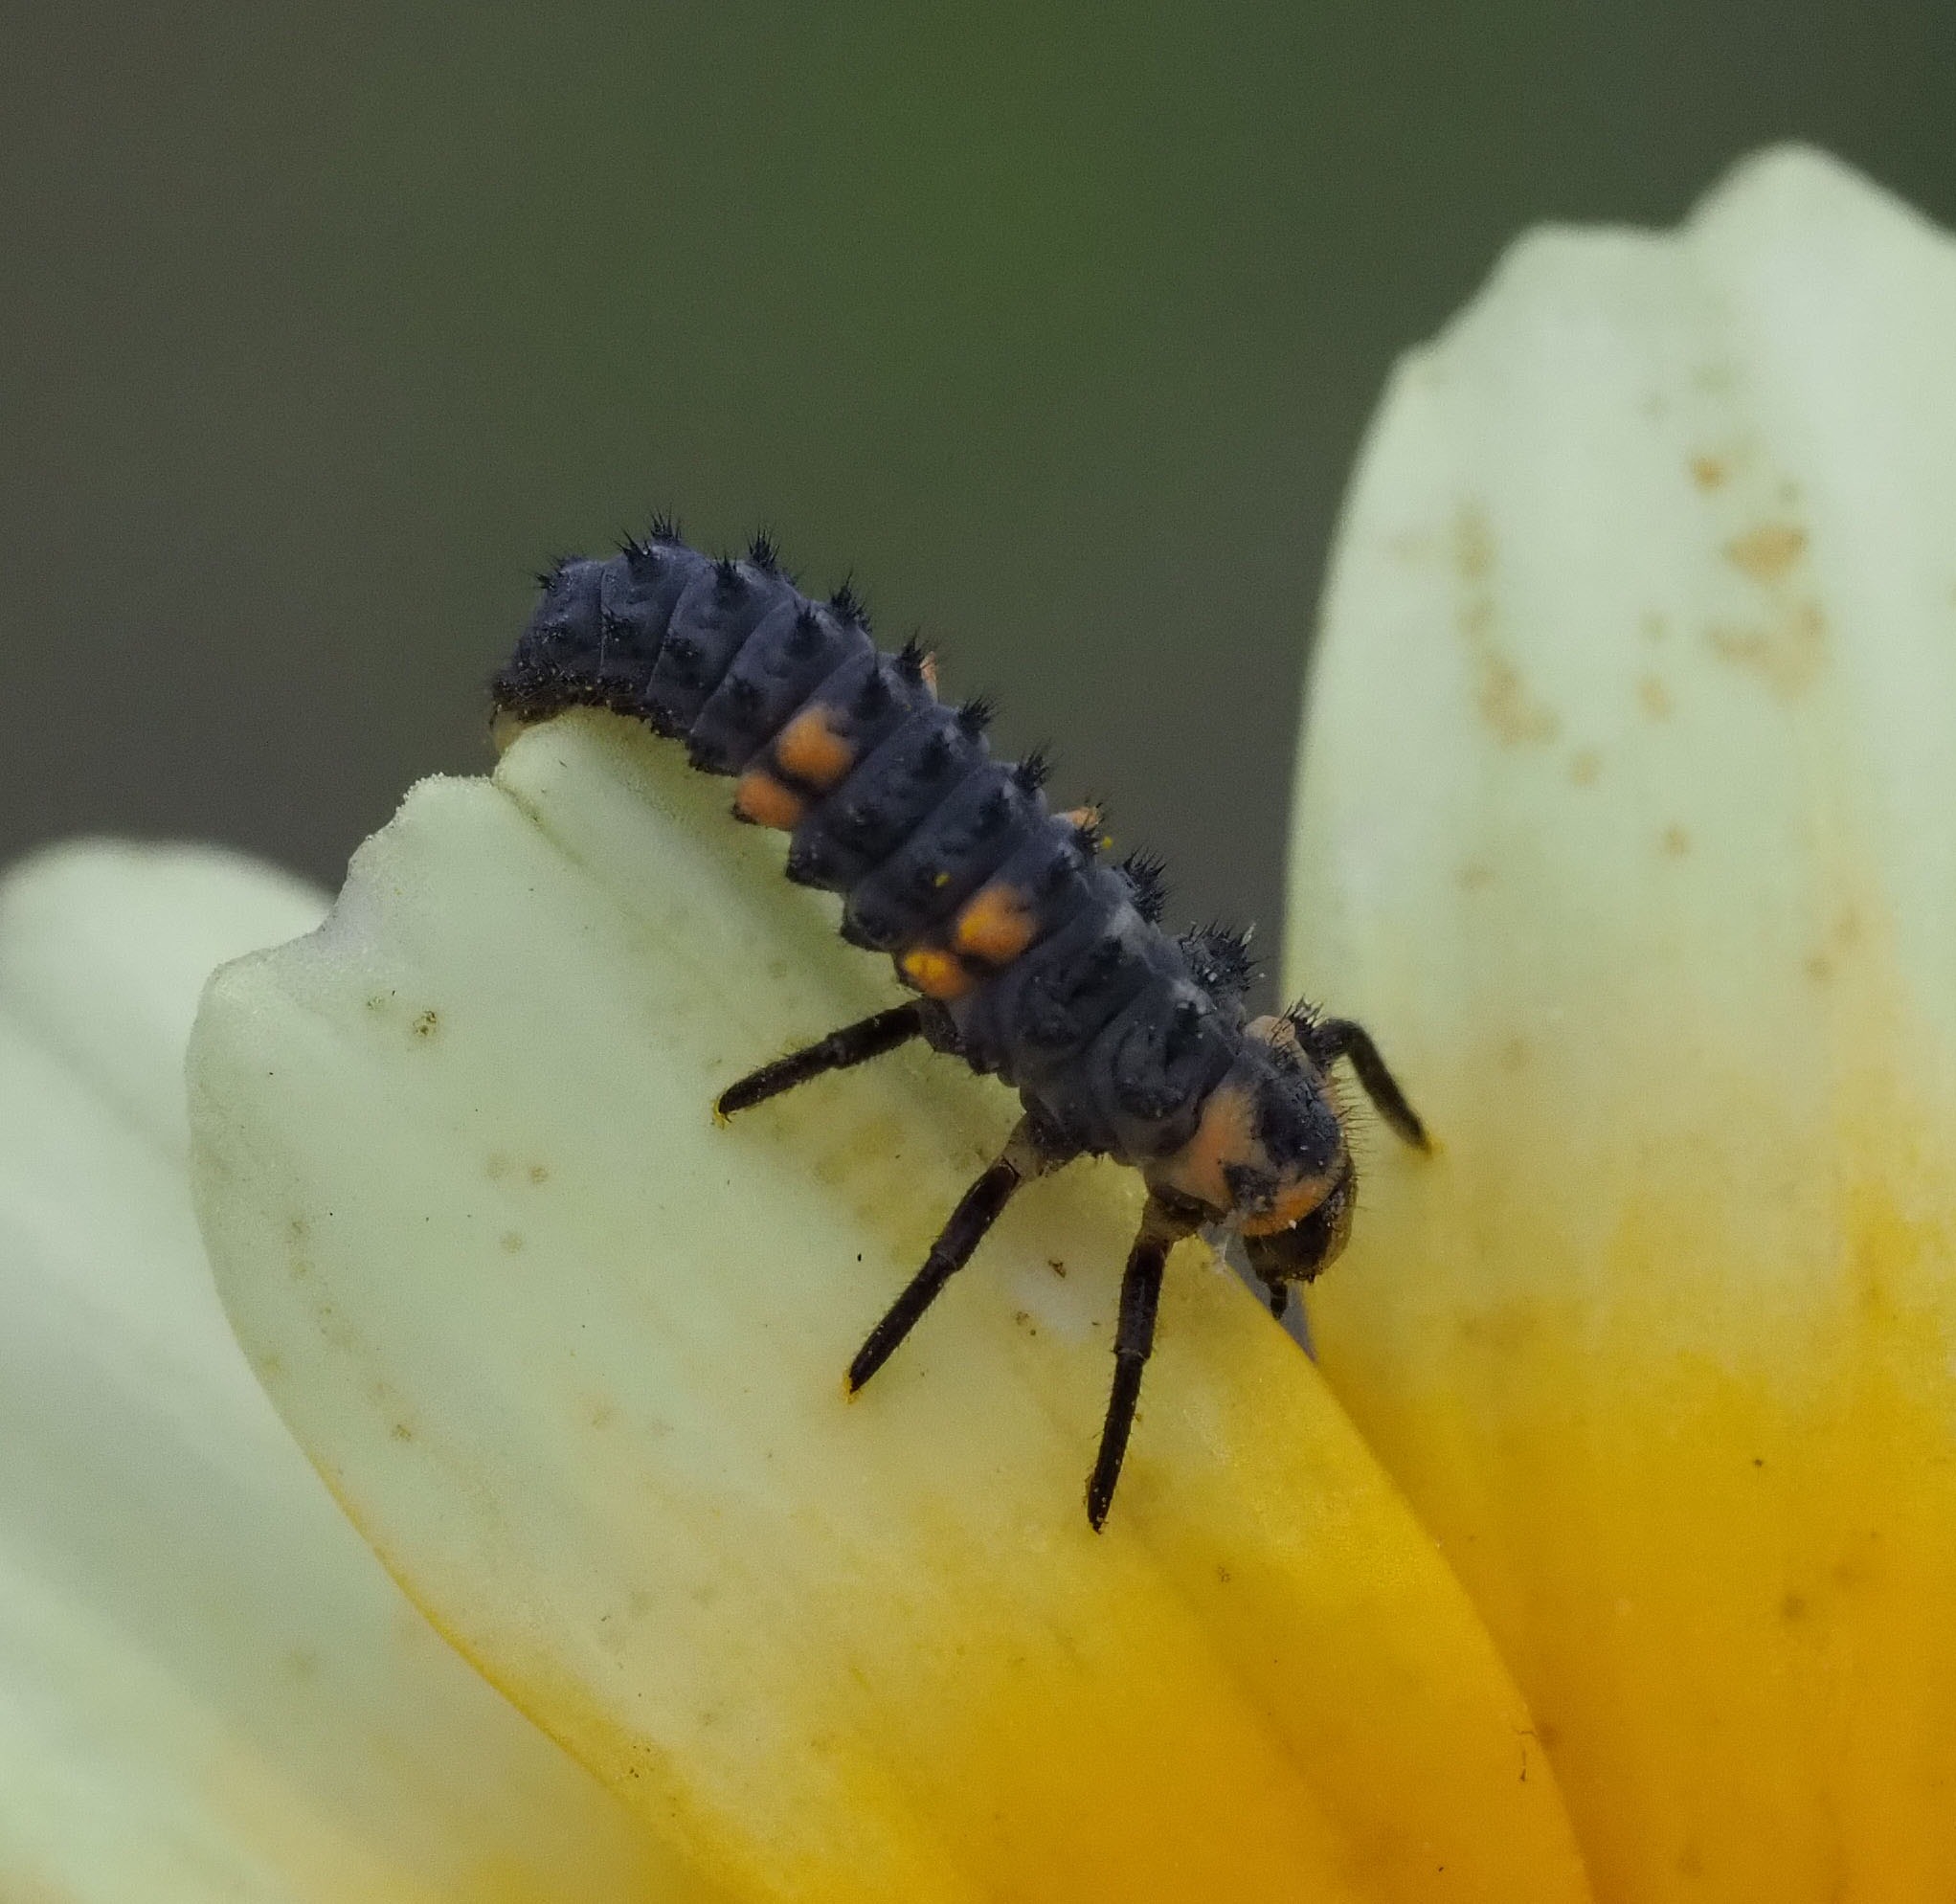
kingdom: Animalia
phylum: Arthropoda
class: Insecta
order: Coleoptera
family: Coccinellidae
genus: Coccinella
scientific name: Coccinella septempunctata
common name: Syvplettet mariehøne
